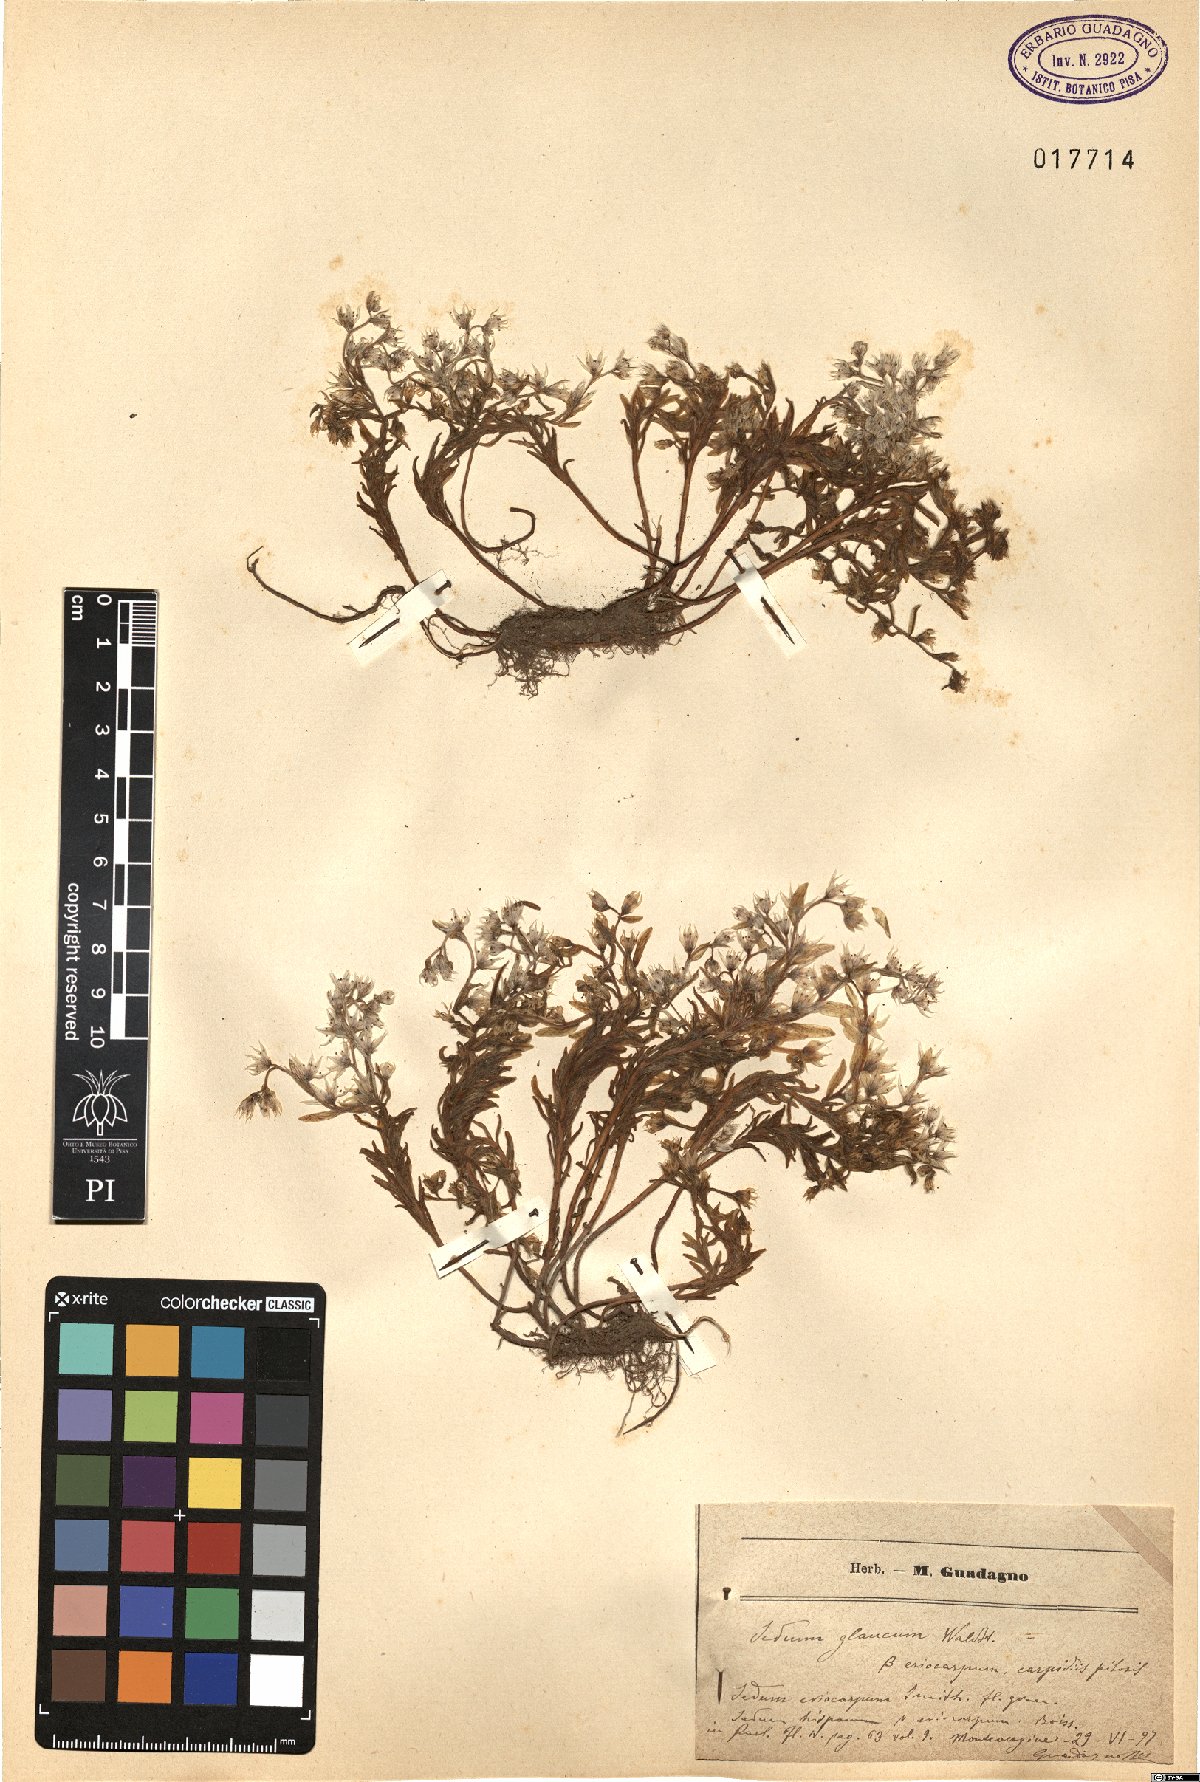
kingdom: Plantae
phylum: Tracheophyta
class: Magnoliopsida
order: Saxifragales
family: Crassulaceae
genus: Sedum
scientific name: Sedum hispanicum
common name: Spanish stonecrop
